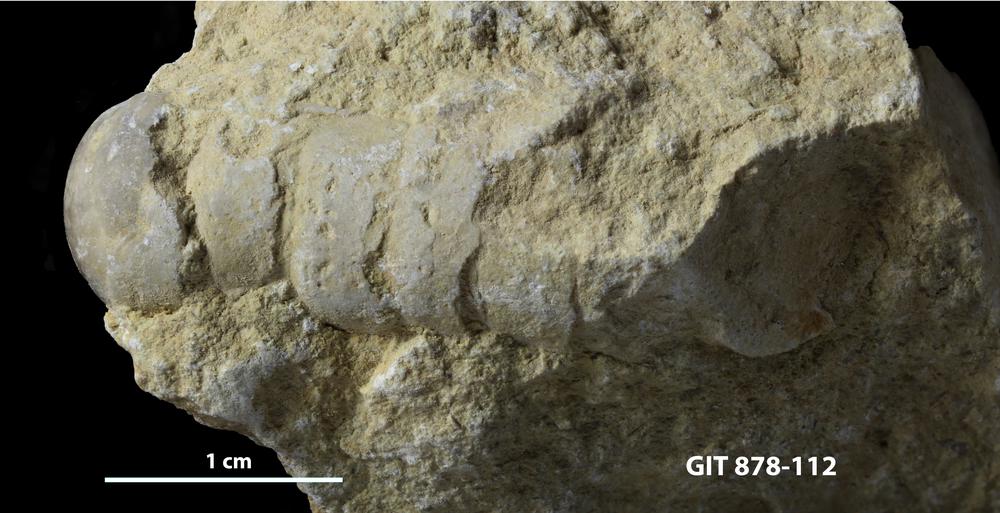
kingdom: Animalia
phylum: Mollusca
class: Cephalopoda
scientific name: Cephalopoda
